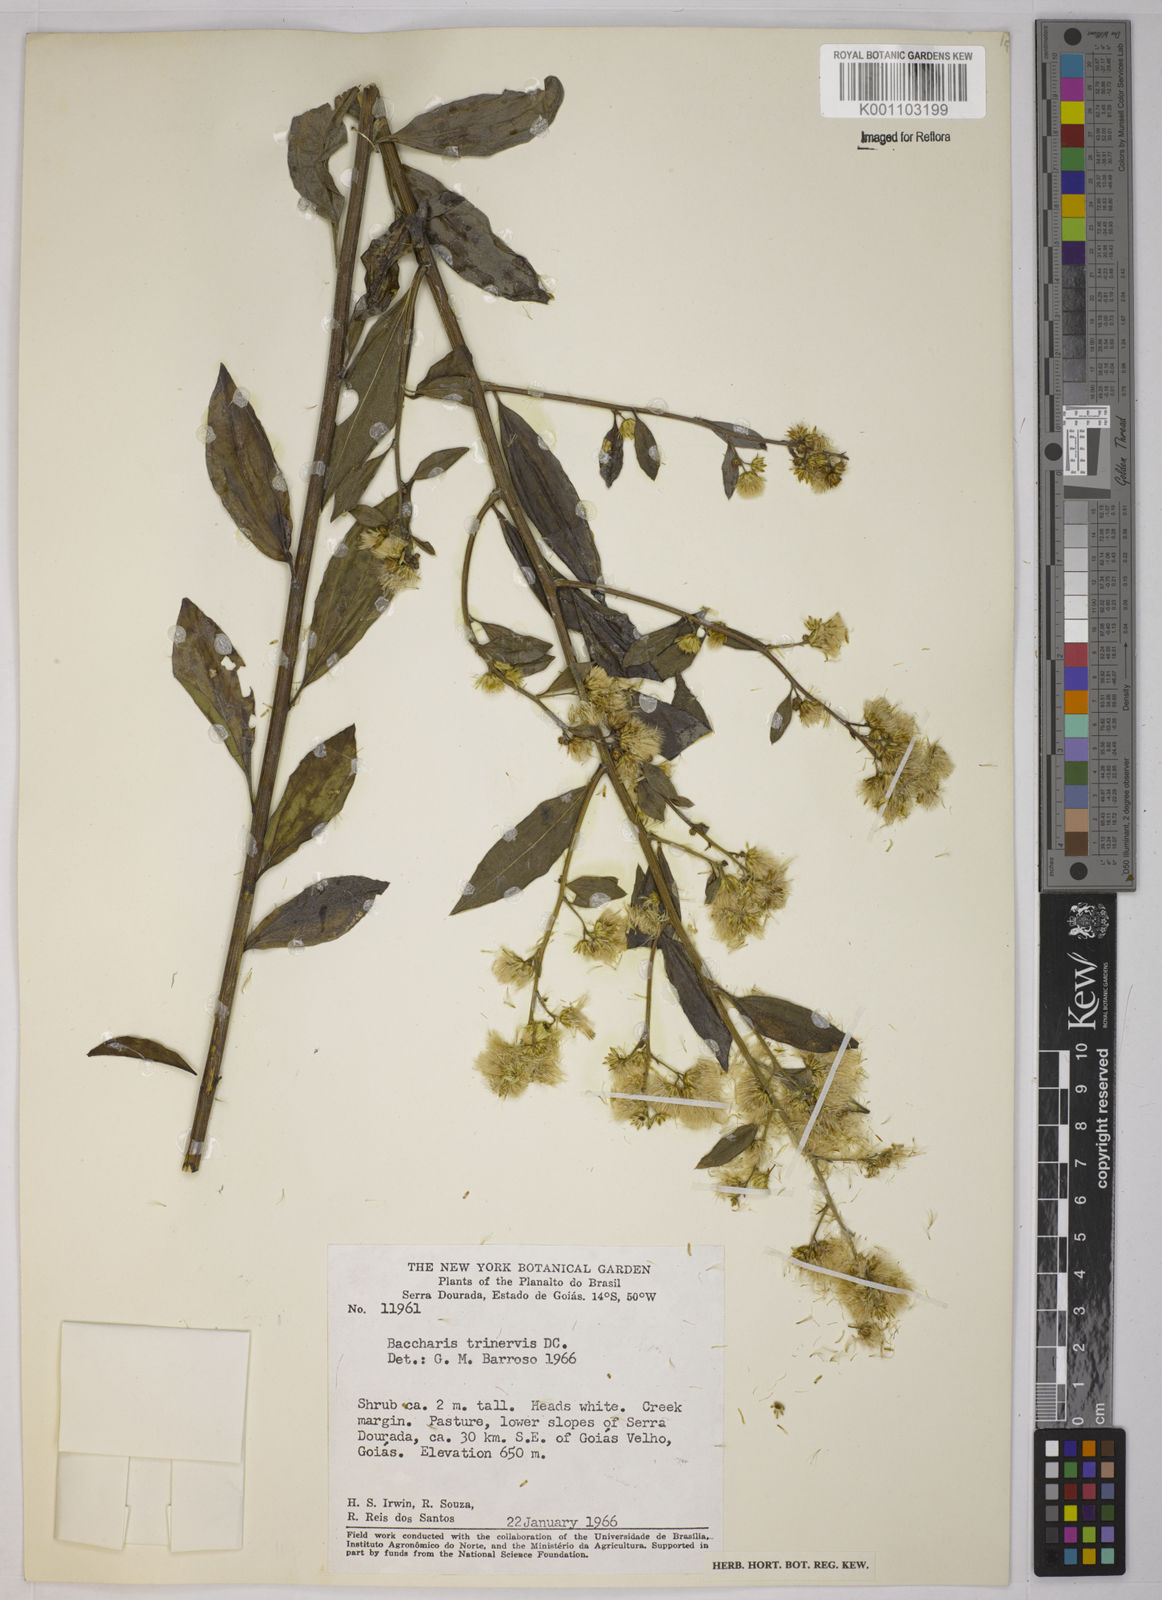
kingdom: Plantae
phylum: Tracheophyta
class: Magnoliopsida
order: Asterales
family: Asteraceae
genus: Baccharis
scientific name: Baccharis trinervis
